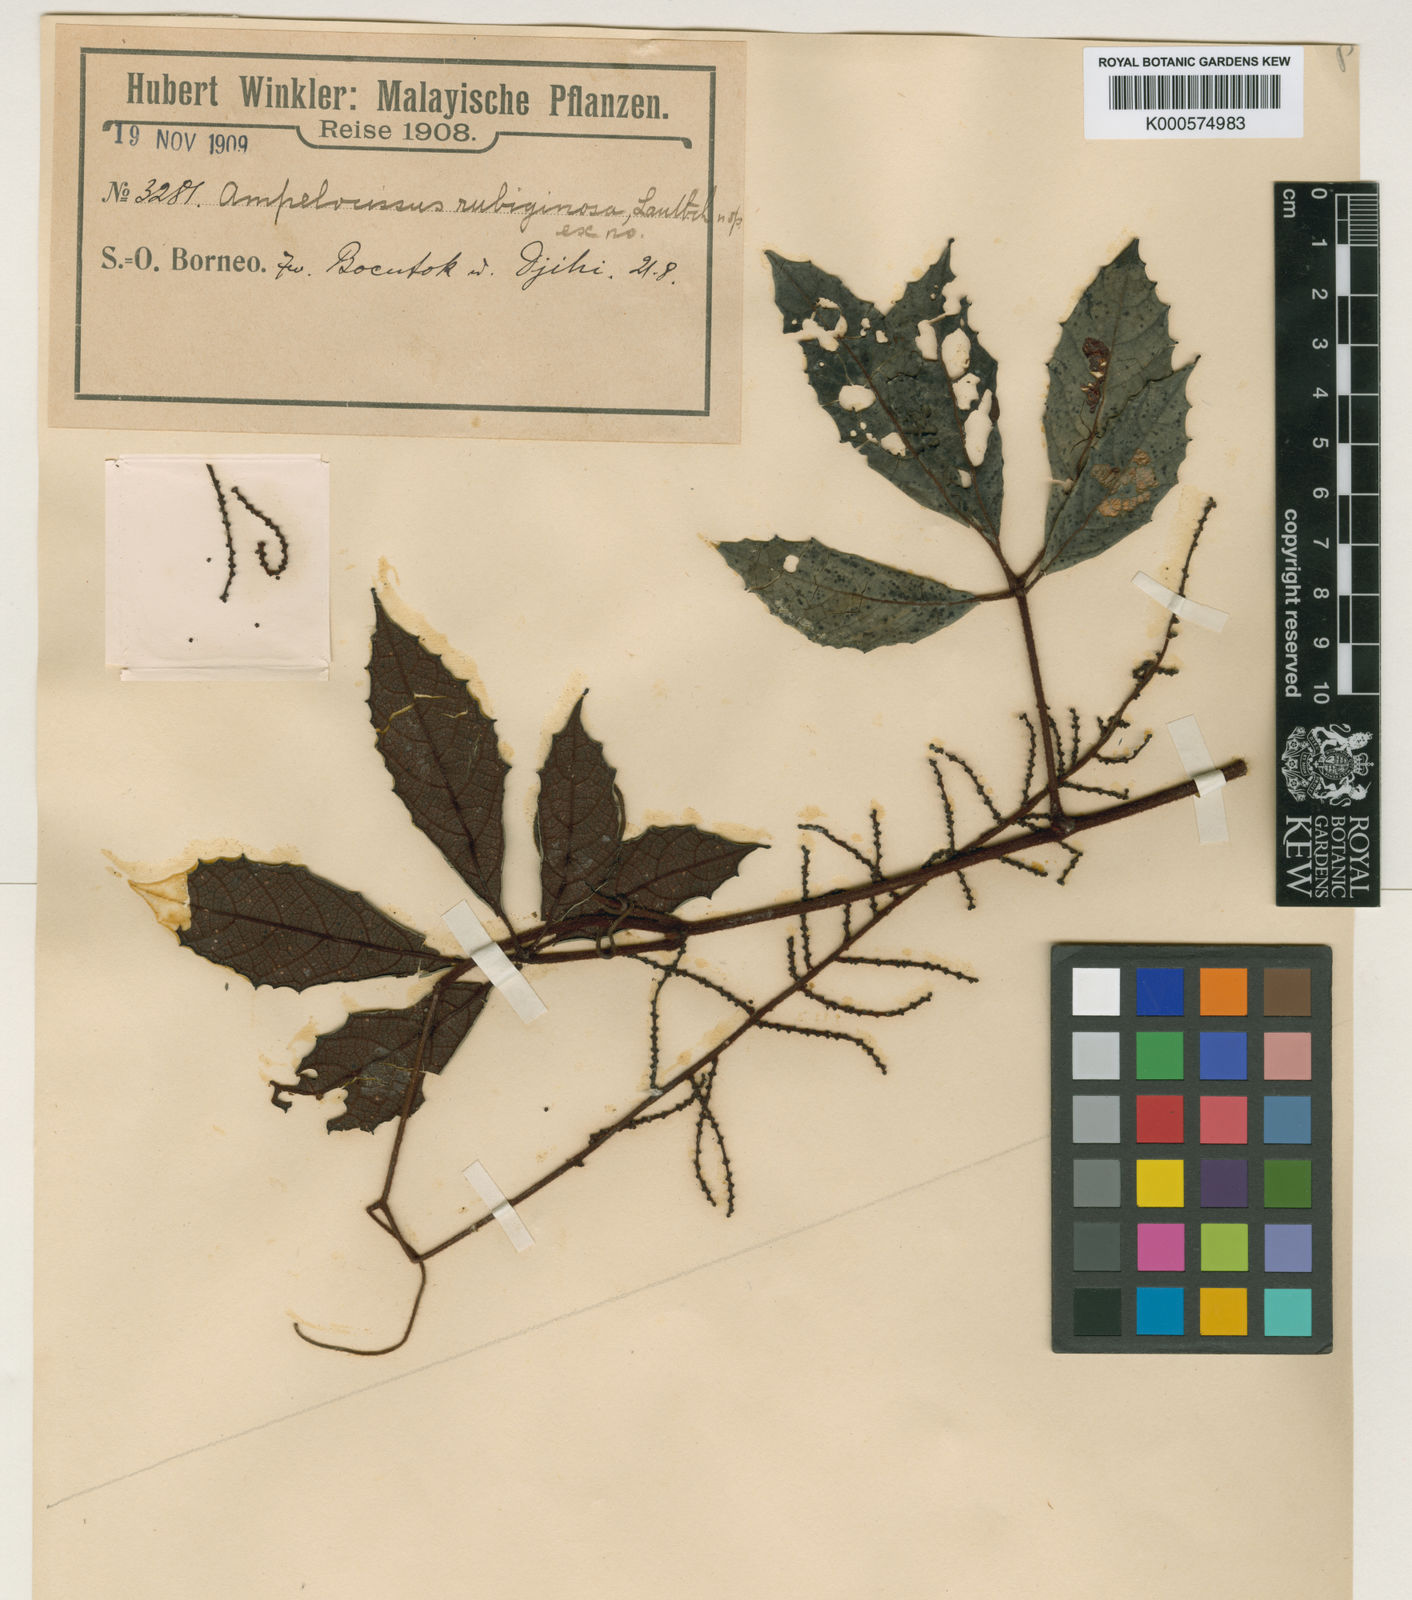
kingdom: Plantae
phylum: Tracheophyta
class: Magnoliopsida
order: Vitales
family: Vitaceae
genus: Ampelocissus
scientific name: Ampelocissus rubiginosa
